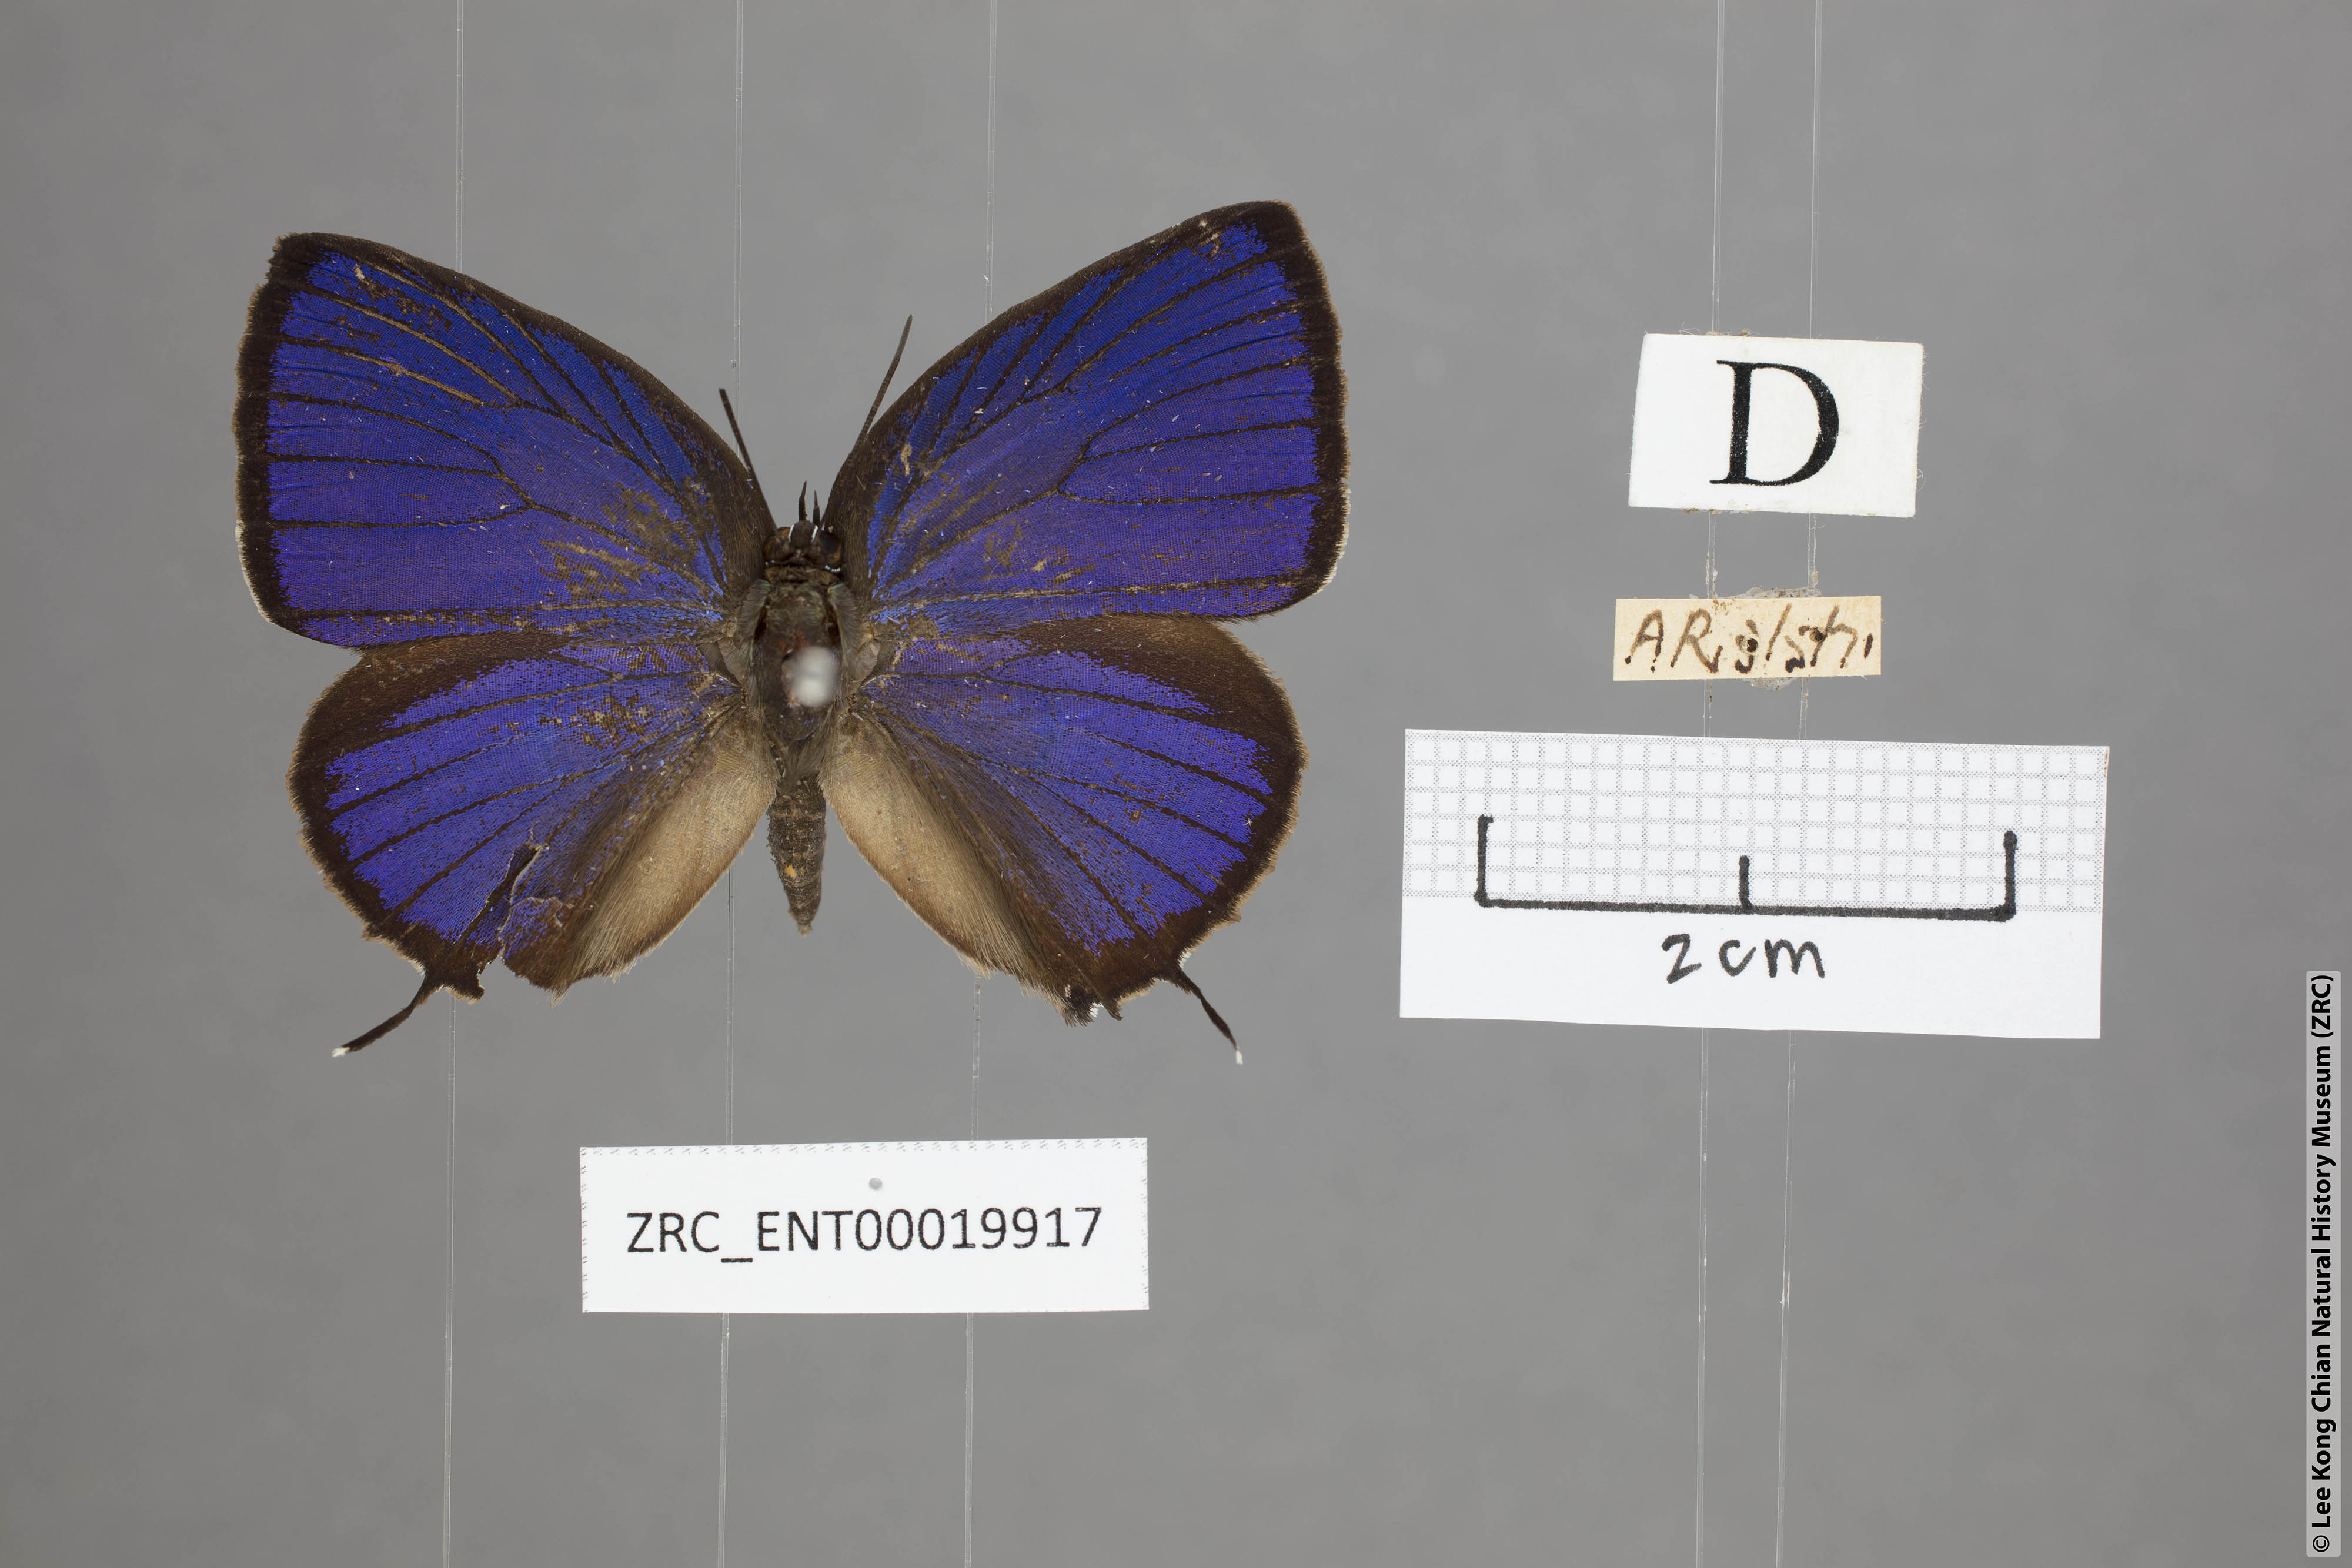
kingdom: Animalia
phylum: Arthropoda
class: Insecta
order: Lepidoptera
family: Lycaenidae
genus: Arhopala
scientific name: Arhopala vihara
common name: Large spotted oakblue
